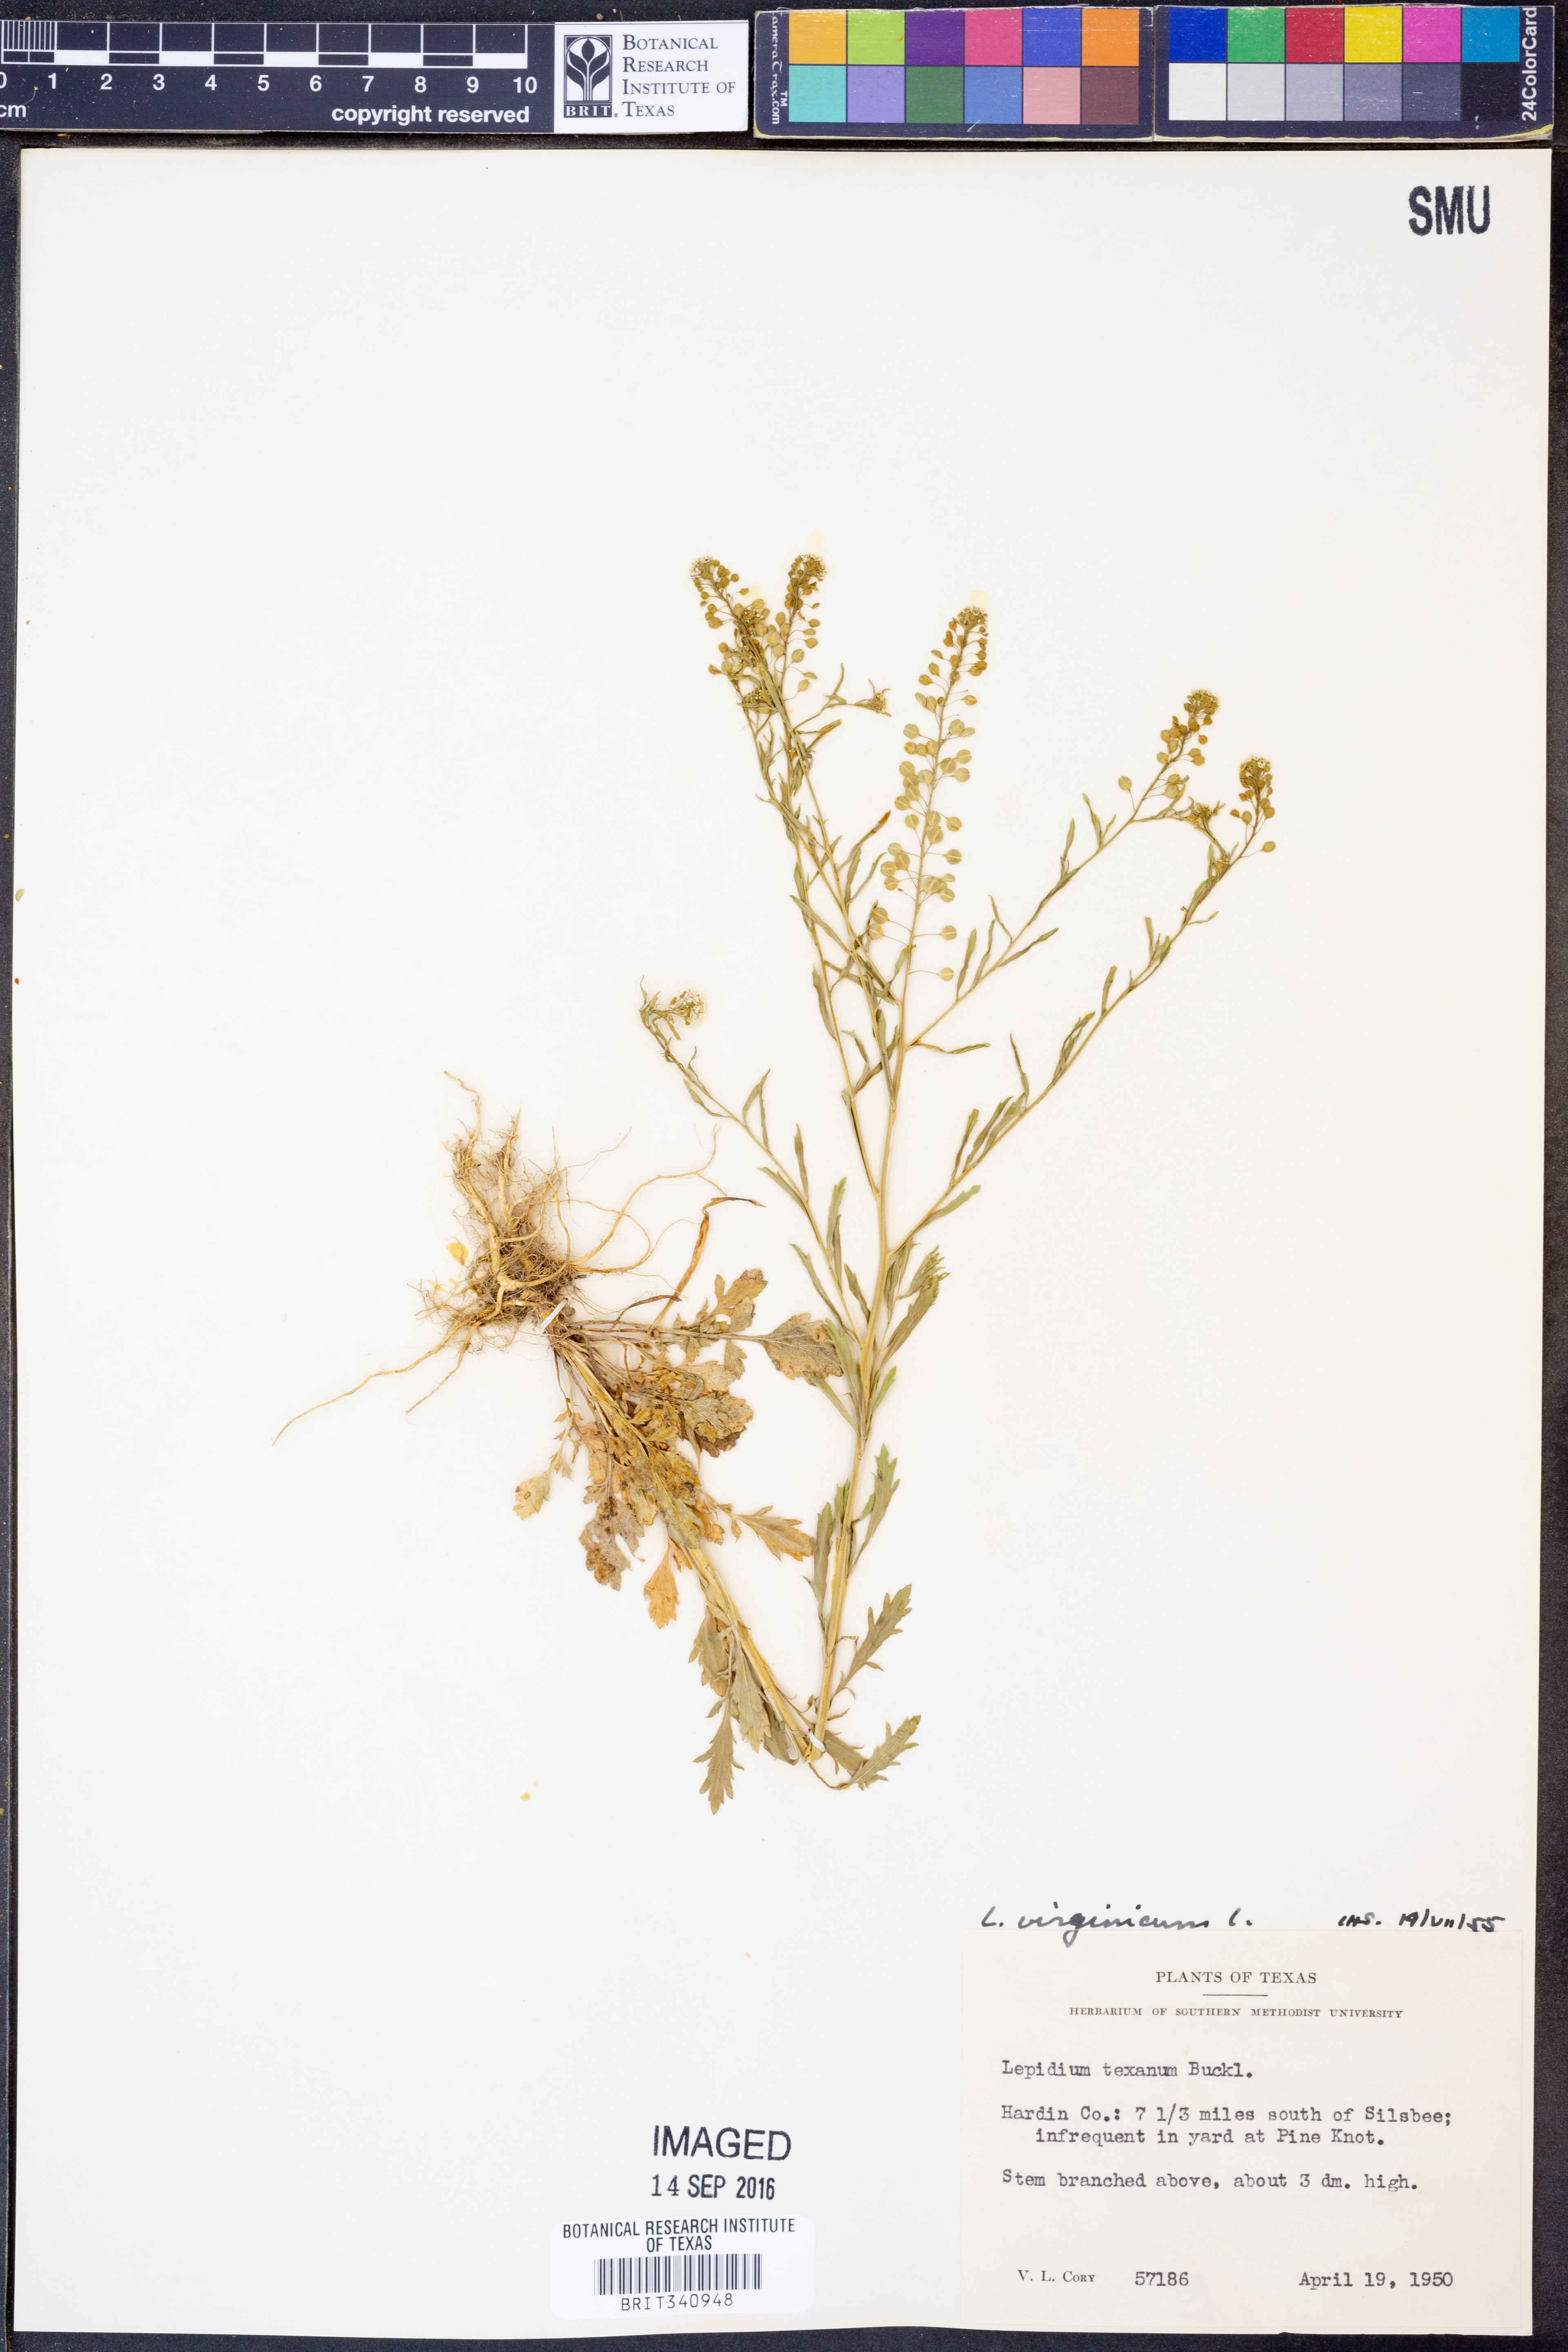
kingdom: Plantae
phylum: Tracheophyta
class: Magnoliopsida
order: Brassicales
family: Brassicaceae
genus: Lepidium
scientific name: Lepidium virginicum
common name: Least pepperwort
